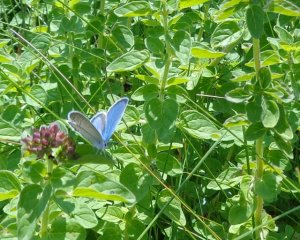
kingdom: Animalia
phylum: Arthropoda
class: Insecta
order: Lepidoptera
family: Lycaenidae
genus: Elkalyce
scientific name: Elkalyce comyntas
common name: Eastern Tailed-Blue
